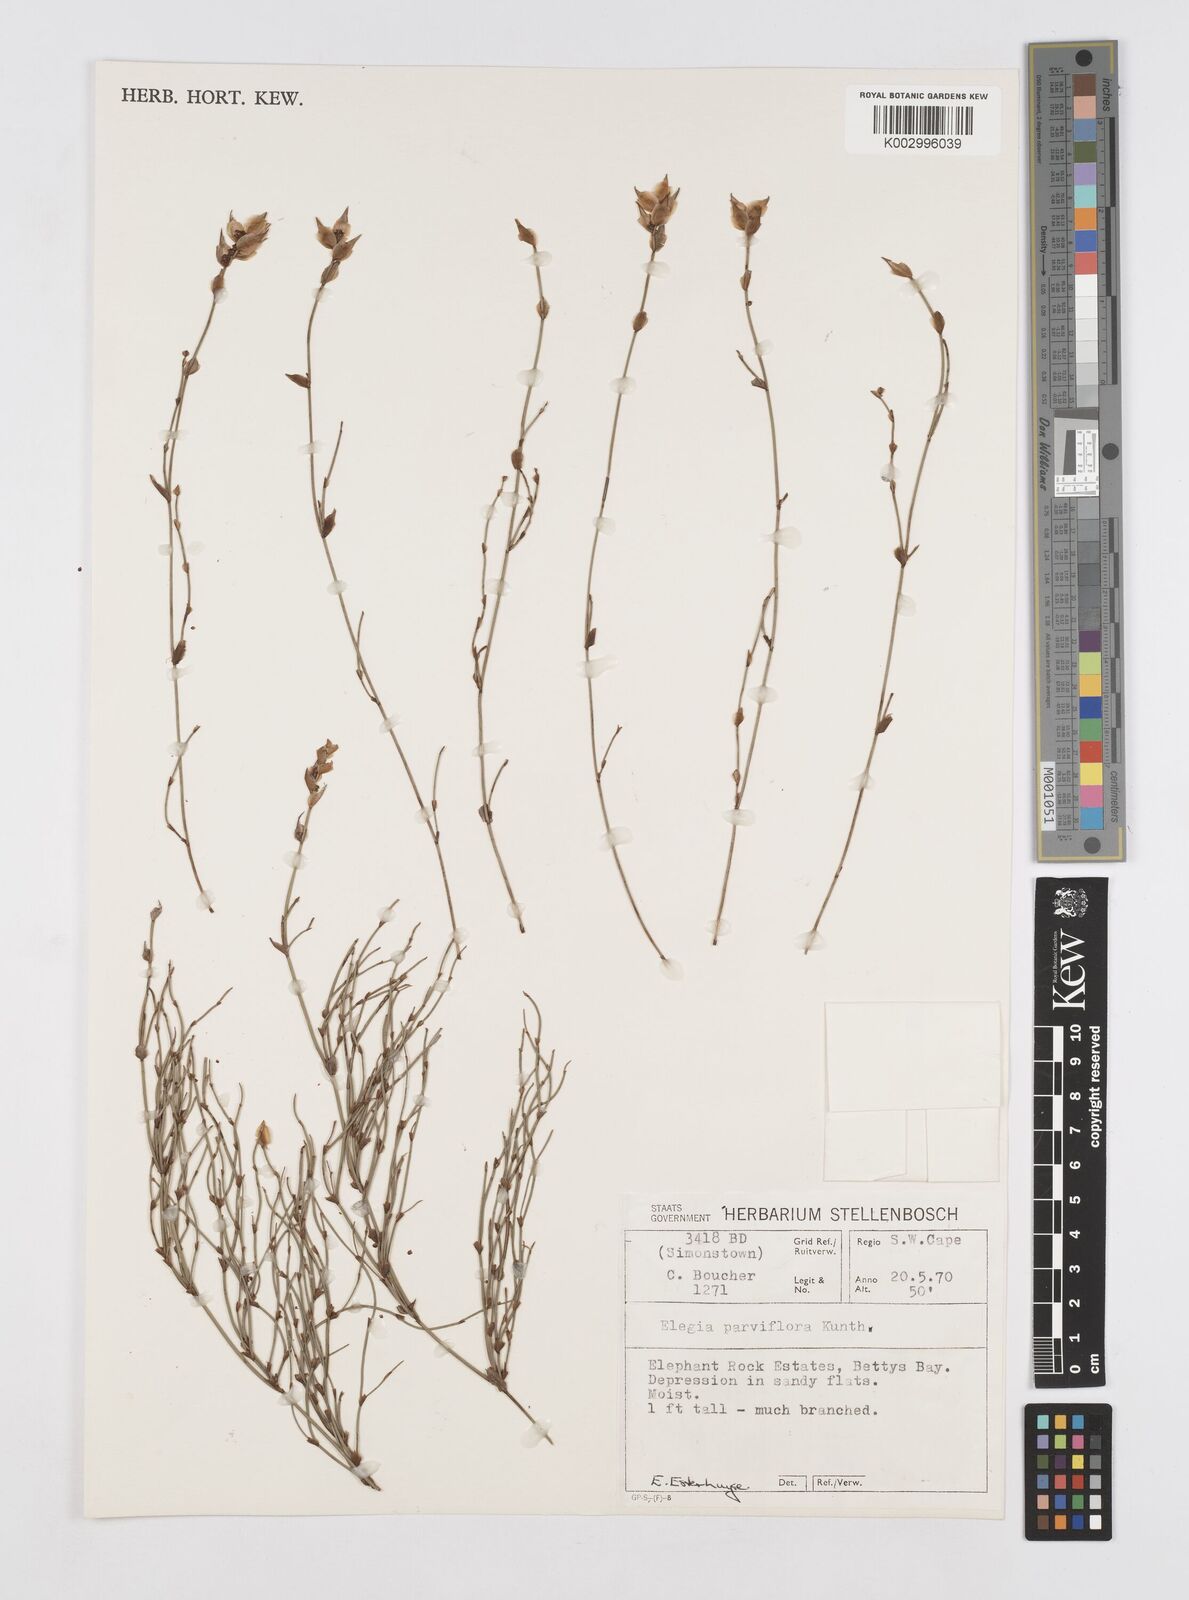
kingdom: Plantae
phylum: Tracheophyta
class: Liliopsida
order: Poales
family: Restionaceae
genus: Cannomois
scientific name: Cannomois parviflora
